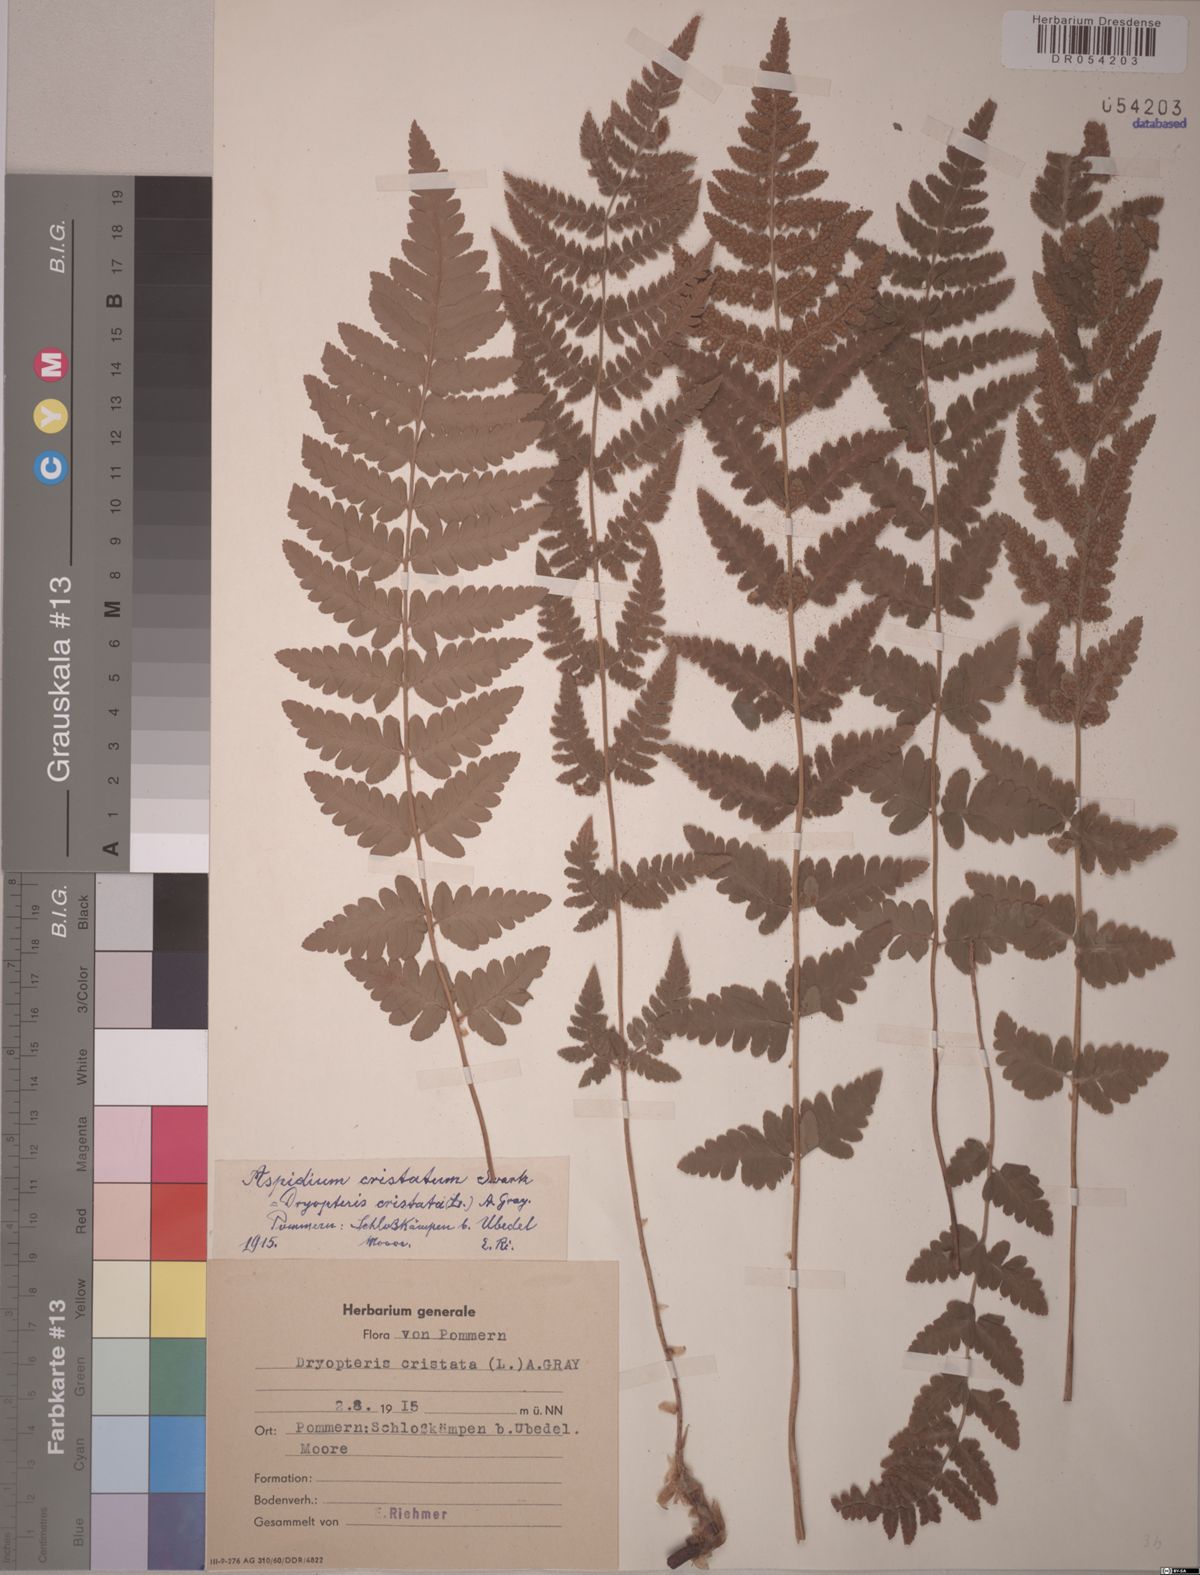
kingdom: Plantae
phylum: Tracheophyta
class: Polypodiopsida
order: Polypodiales
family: Dryopteridaceae
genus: Dryopteris
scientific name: Dryopteris cristata
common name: Crested wood fern
